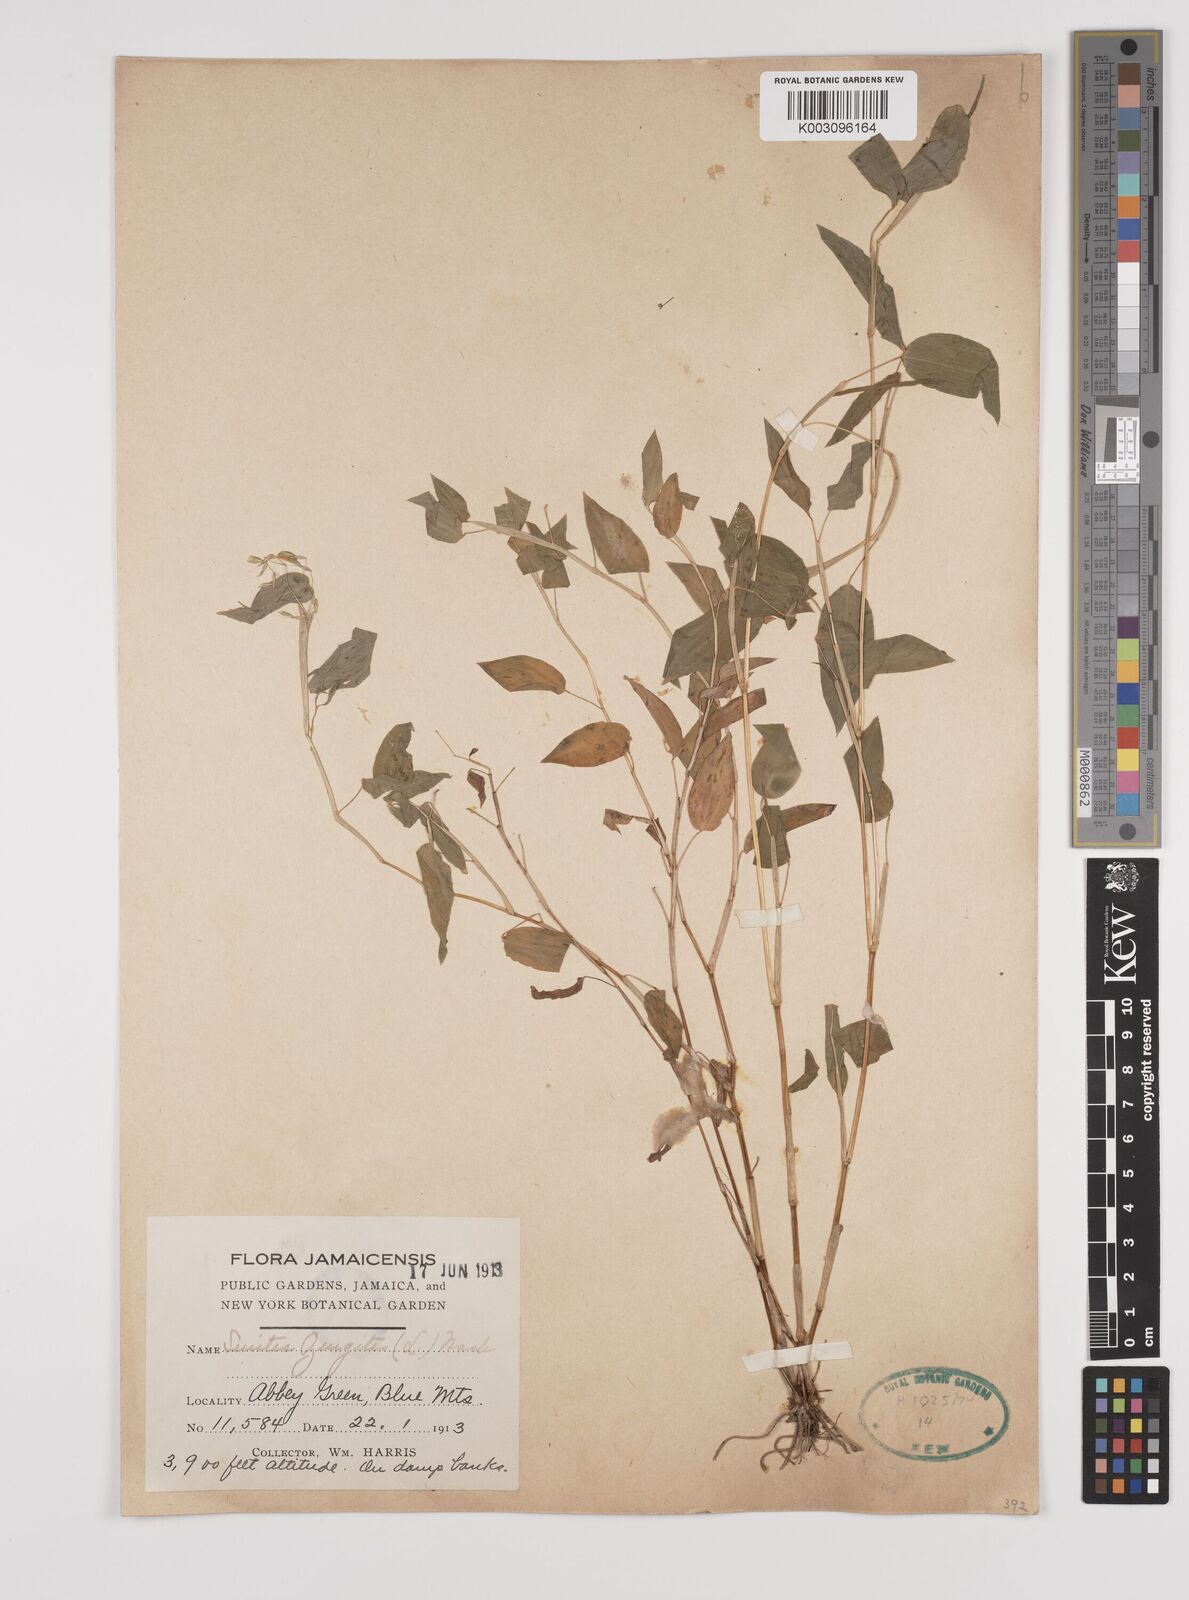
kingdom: Plantae
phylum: Tracheophyta
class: Liliopsida
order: Poales
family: Poaceae
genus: Zeugites
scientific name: Zeugites americanus
